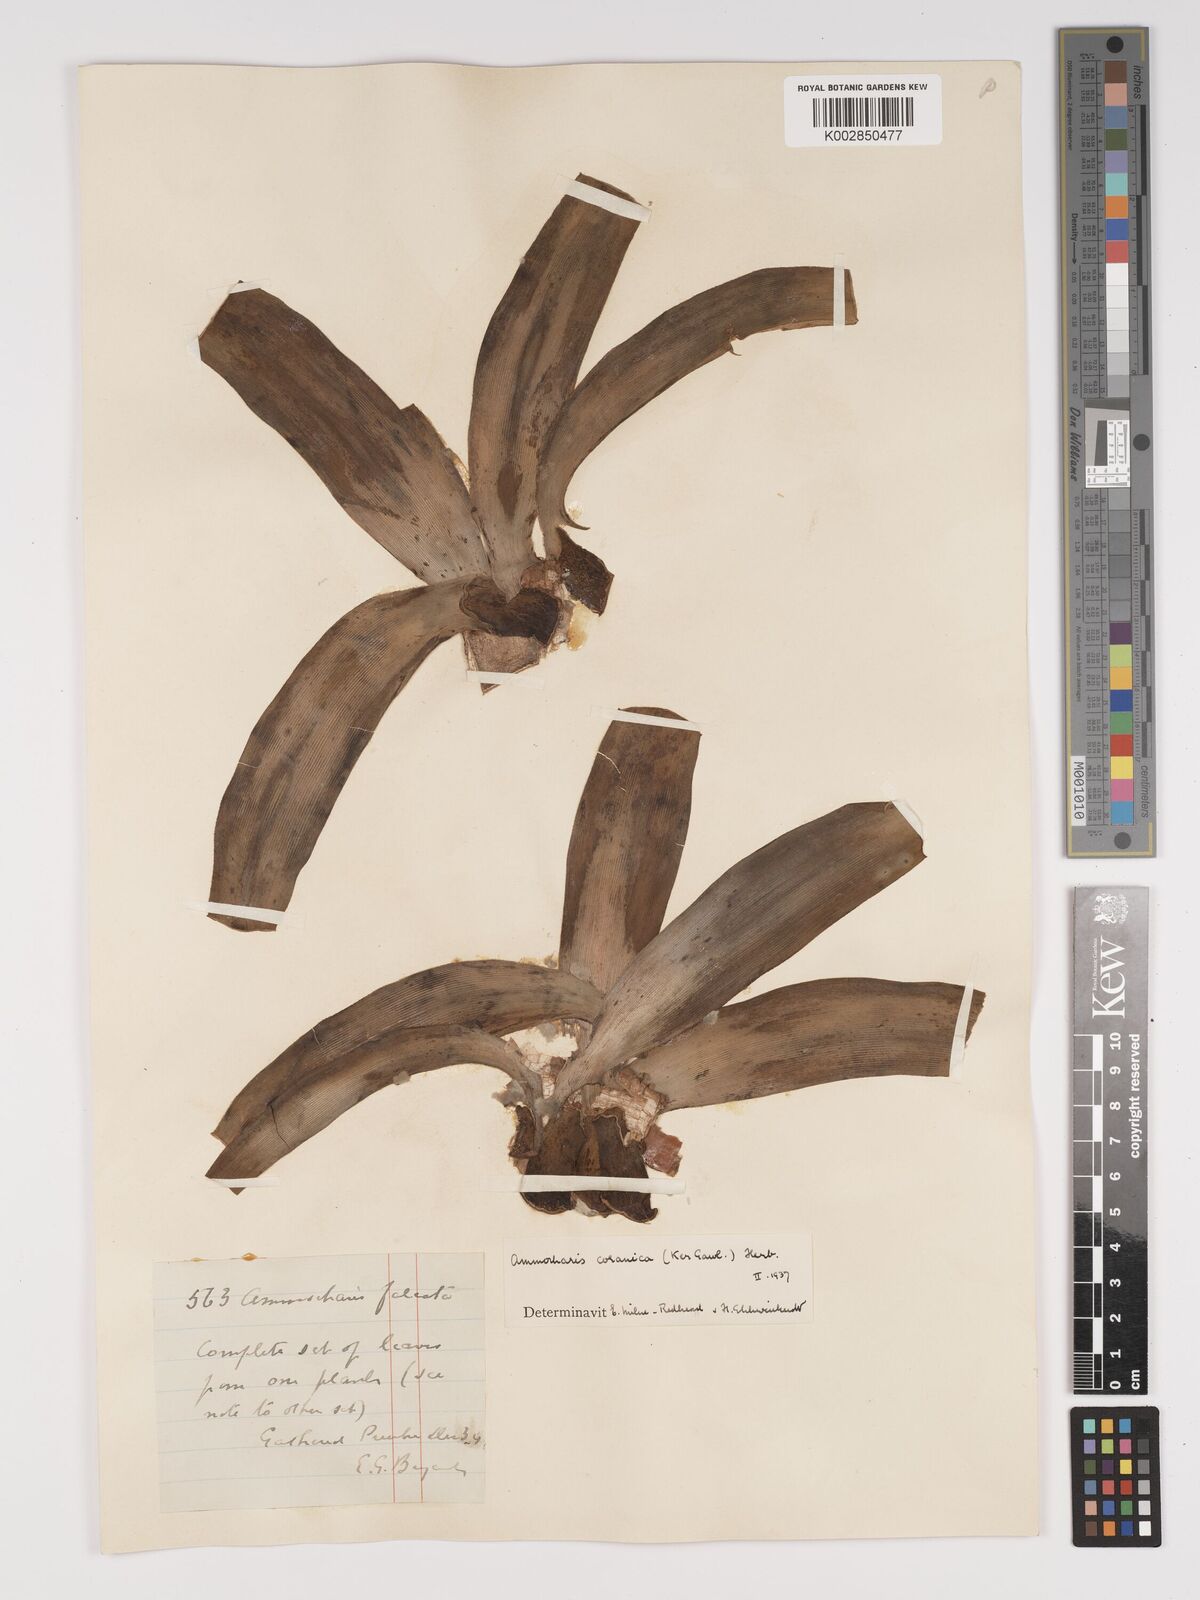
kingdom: Plantae
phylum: Tracheophyta
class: Liliopsida
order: Asparagales
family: Amaryllidaceae
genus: Ammocharis
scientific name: Ammocharis coranica
